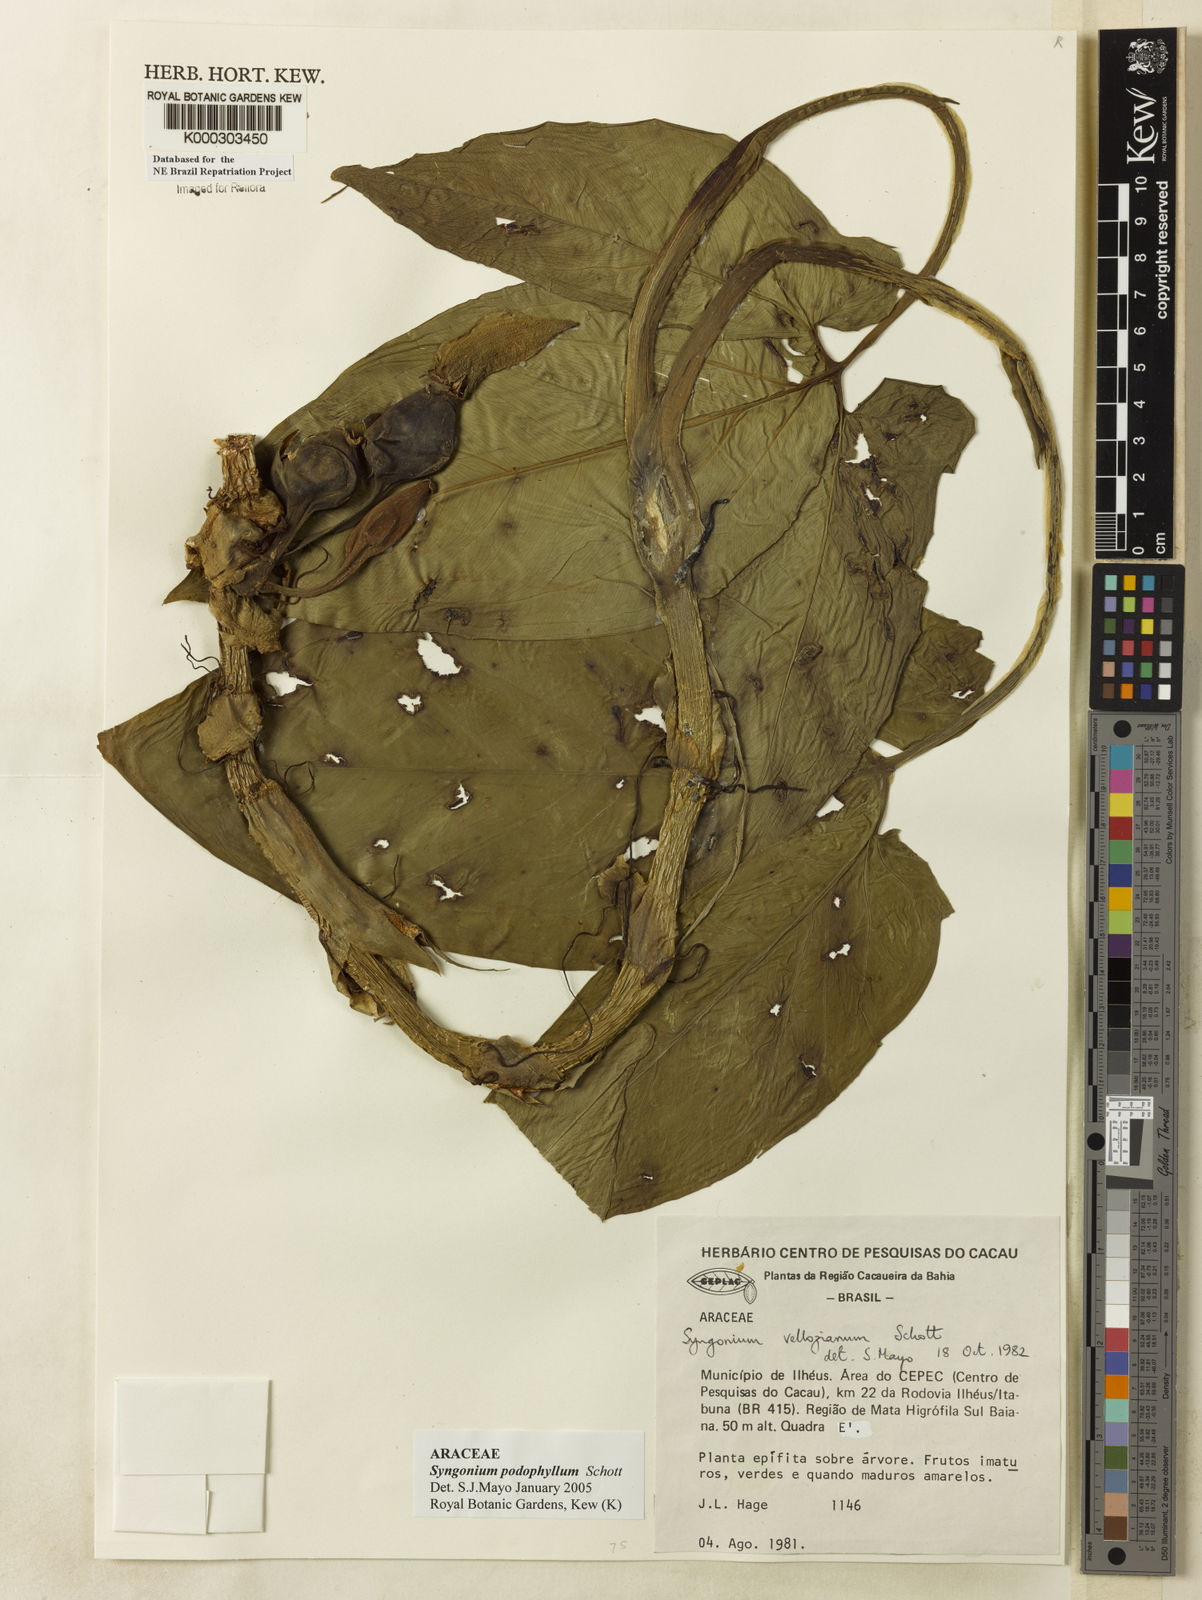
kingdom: Plantae
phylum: Tracheophyta
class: Liliopsida
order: Alismatales
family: Araceae
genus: Syngonium
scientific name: Syngonium podophyllum
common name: American evergreen
